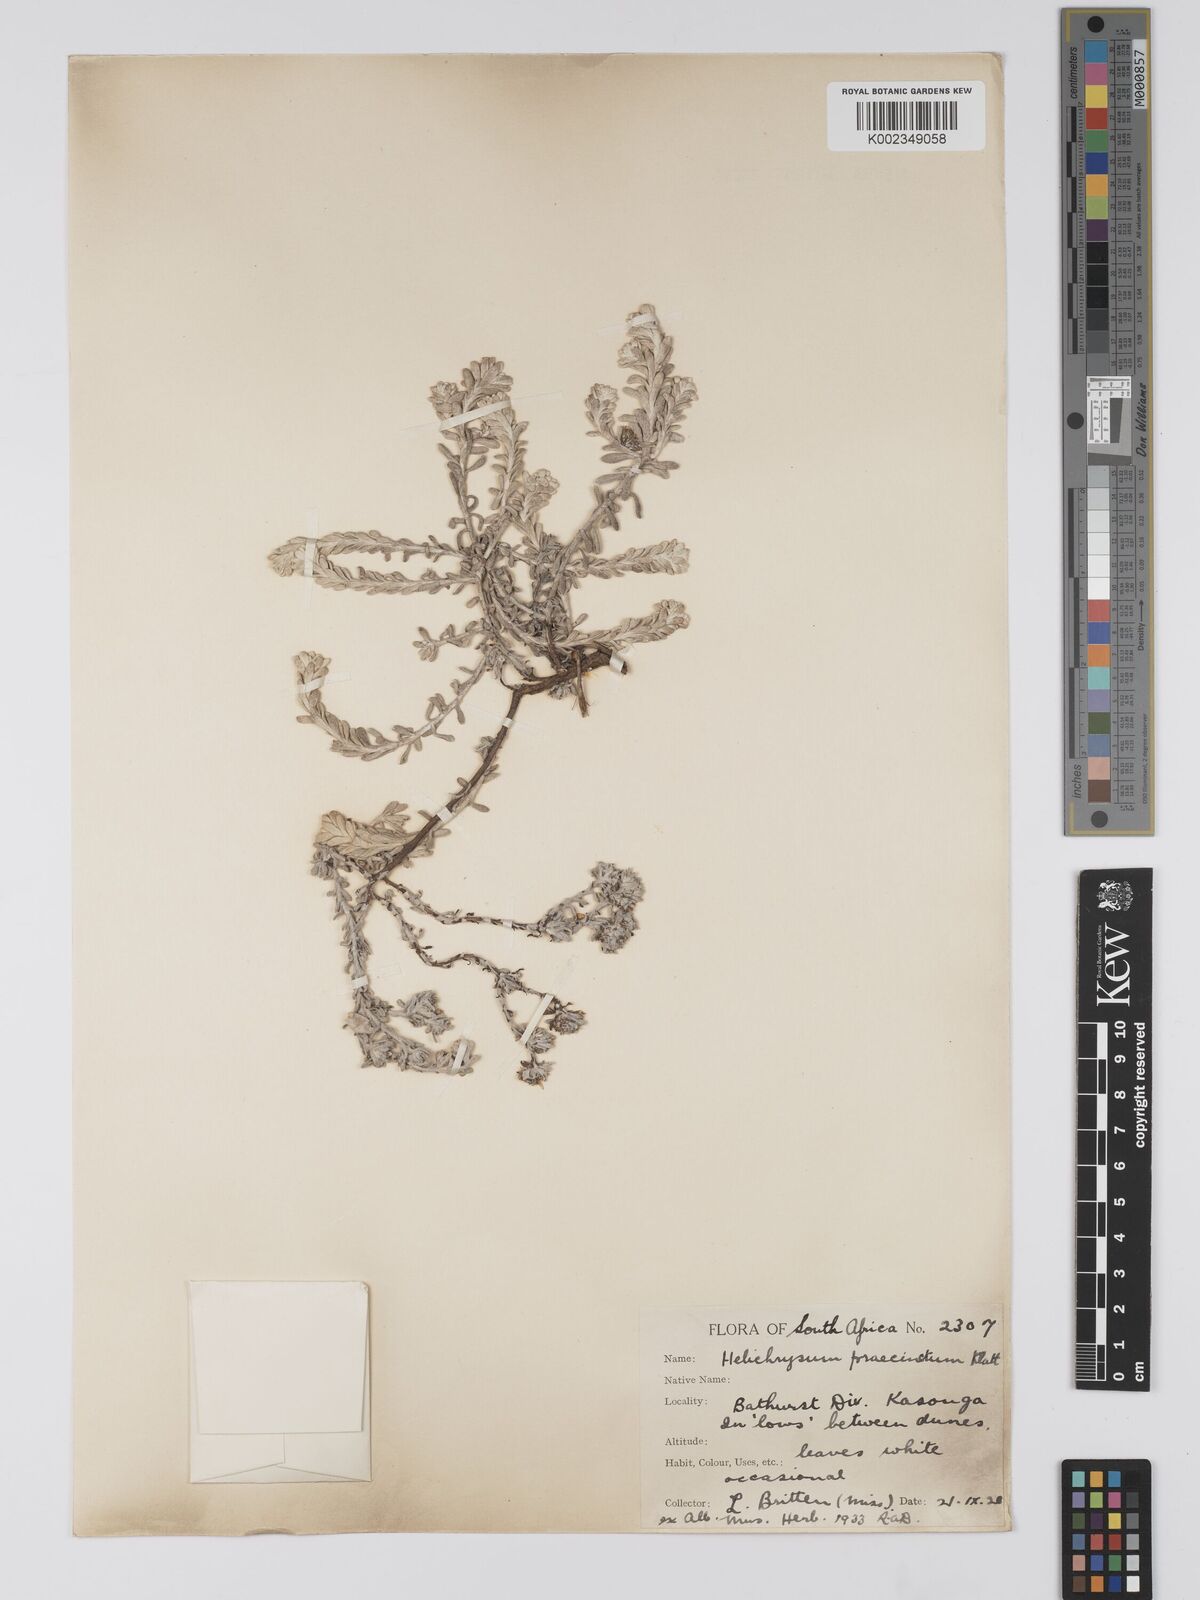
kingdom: Plantae
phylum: Tracheophyta
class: Magnoliopsida
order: Asterales
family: Asteraceae
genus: Helichrysum
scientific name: Helichrysum praecinctum
